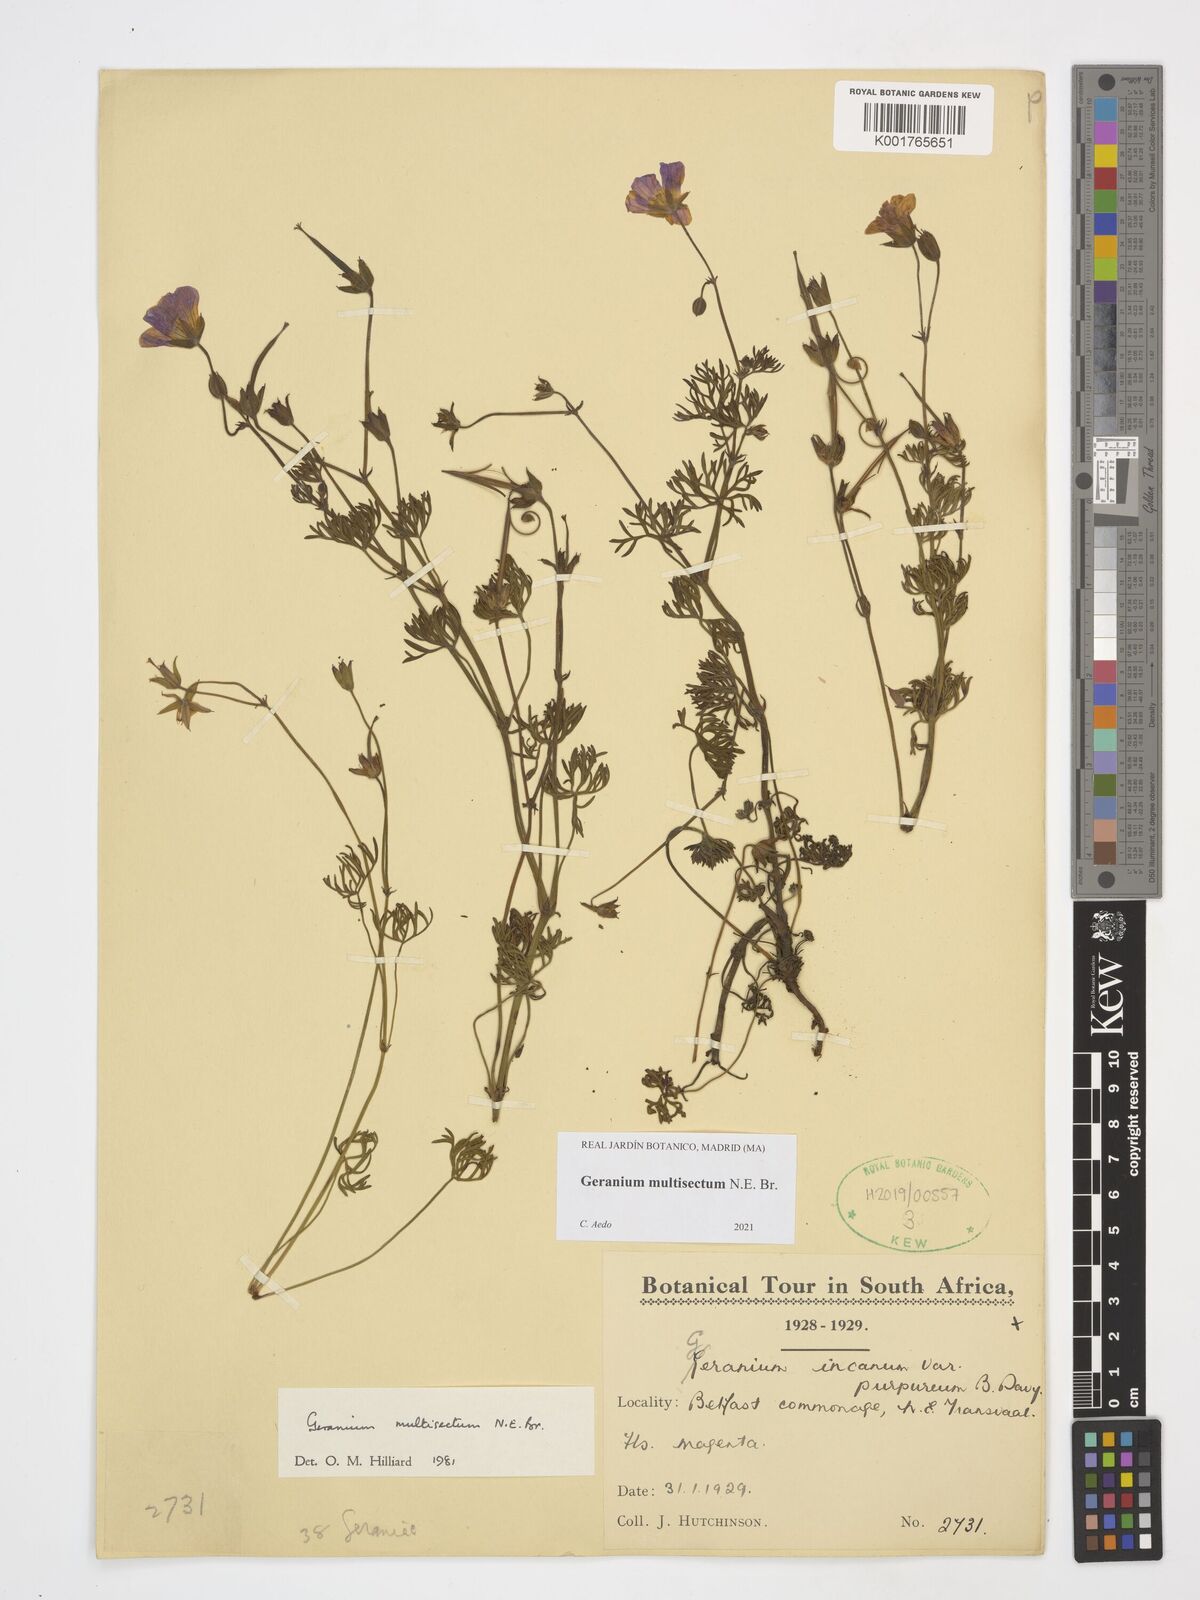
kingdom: Plantae
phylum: Tracheophyta
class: Magnoliopsida
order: Geraniales
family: Geraniaceae
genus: Geranium
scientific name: Geranium multisectum
